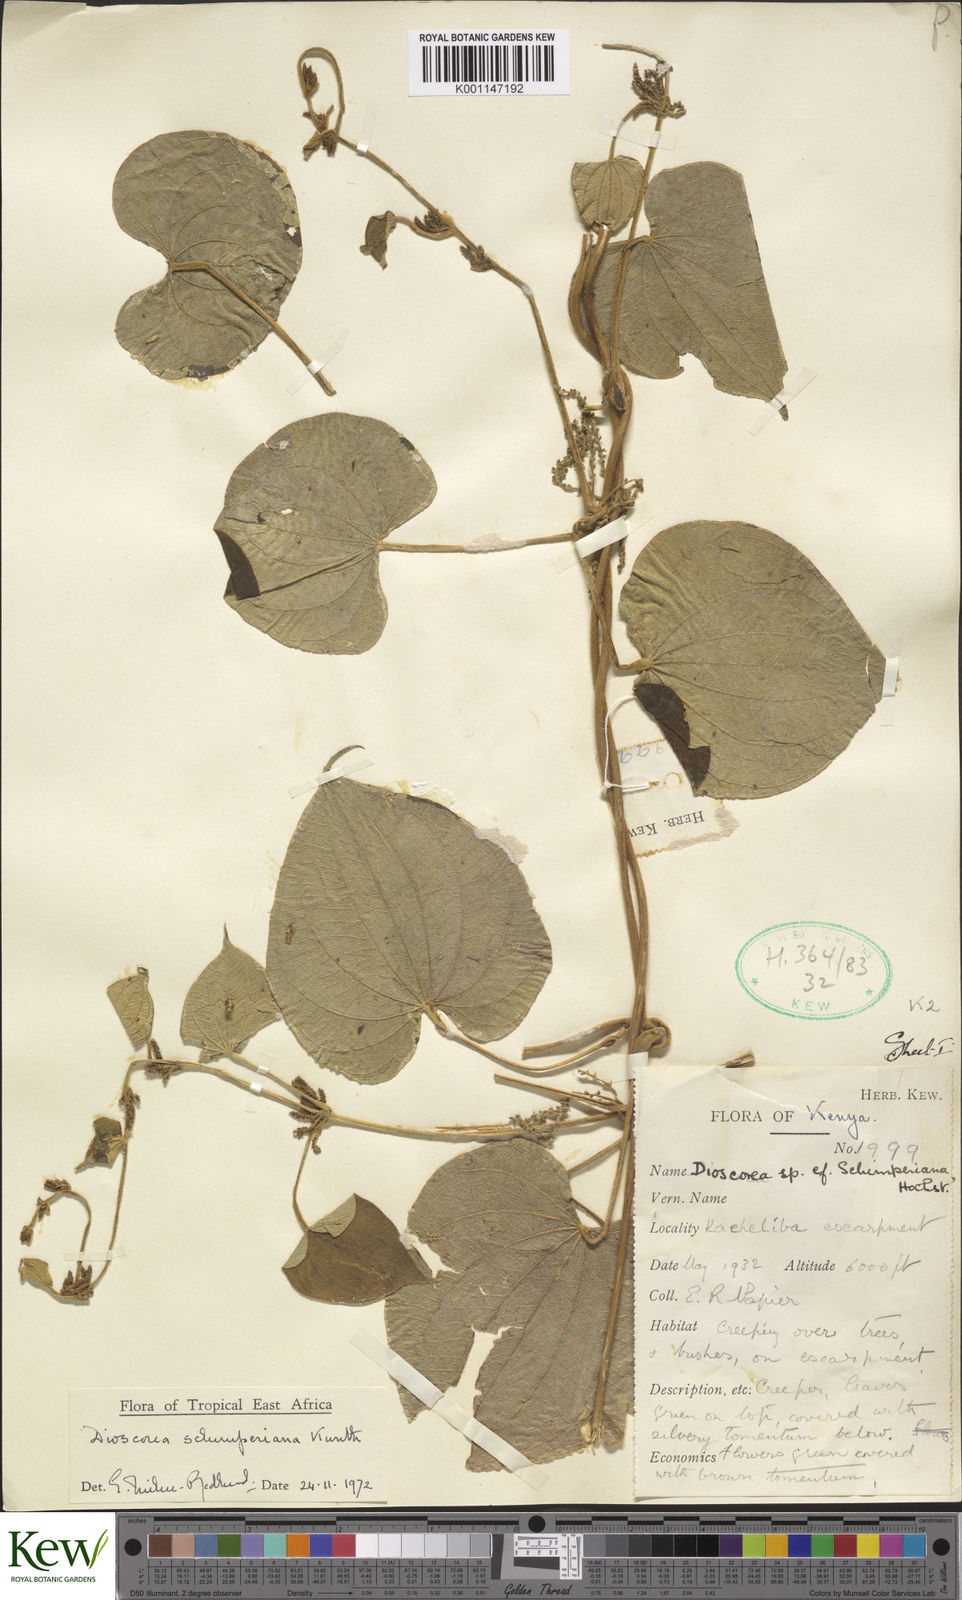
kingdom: Plantae
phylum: Tracheophyta
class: Liliopsida
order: Dioscoreales
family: Dioscoreaceae
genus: Dioscorea
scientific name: Dioscorea schimperiana
